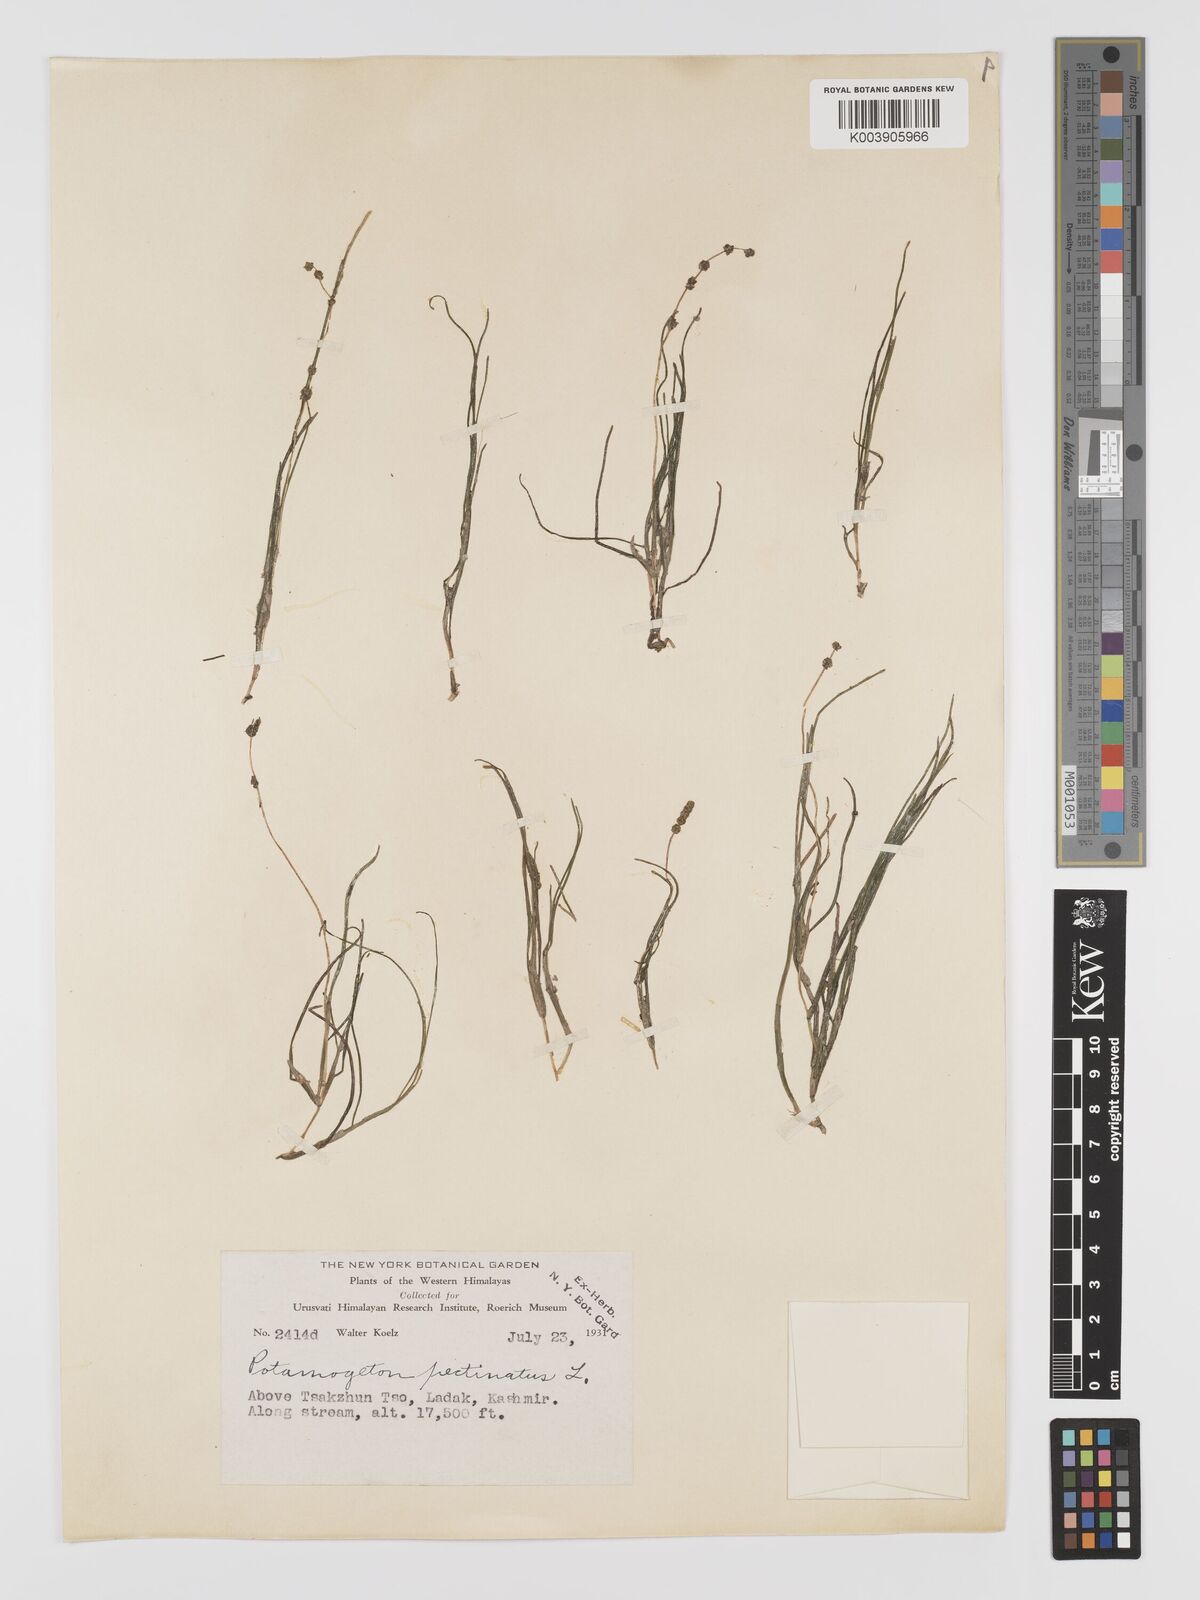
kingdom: Plantae
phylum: Tracheophyta
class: Liliopsida
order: Alismatales
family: Potamogetonaceae
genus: Potamogeton
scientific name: Potamogeton filiformis
